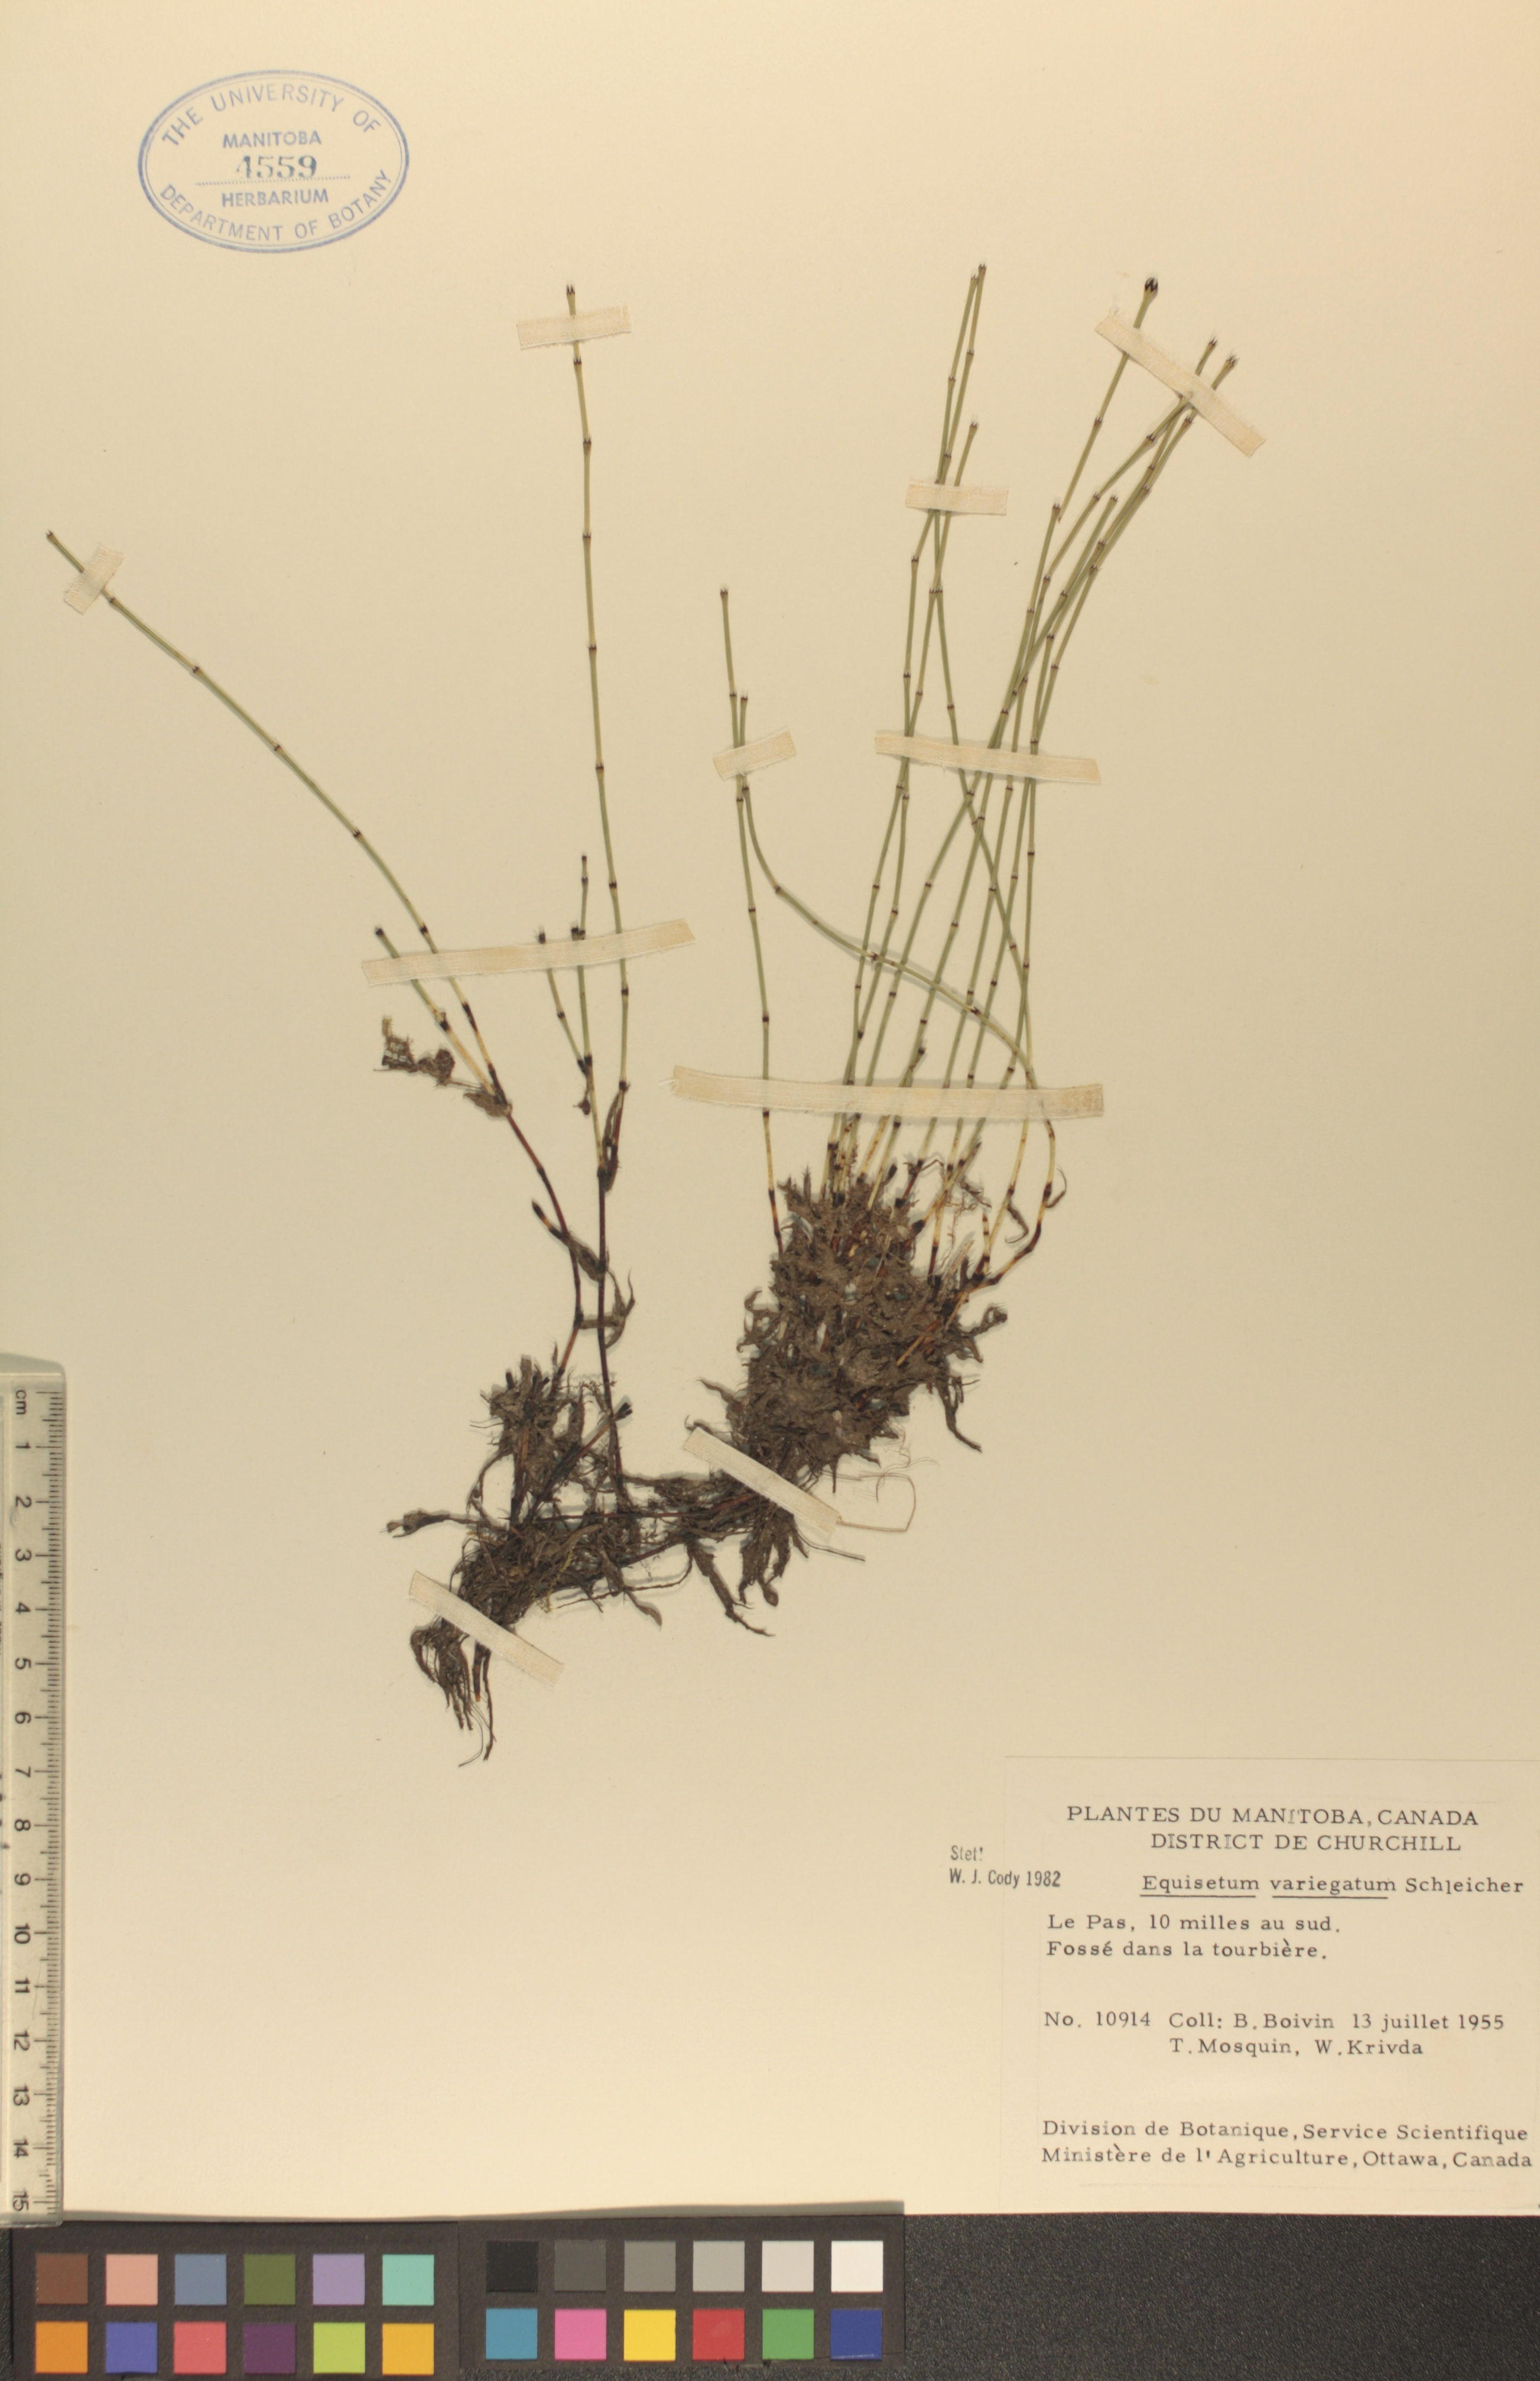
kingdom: Plantae
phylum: Tracheophyta
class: Polypodiopsida
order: Equisetales
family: Equisetaceae
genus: Equisetum
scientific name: Equisetum variegatum
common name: Variegated horsetail
